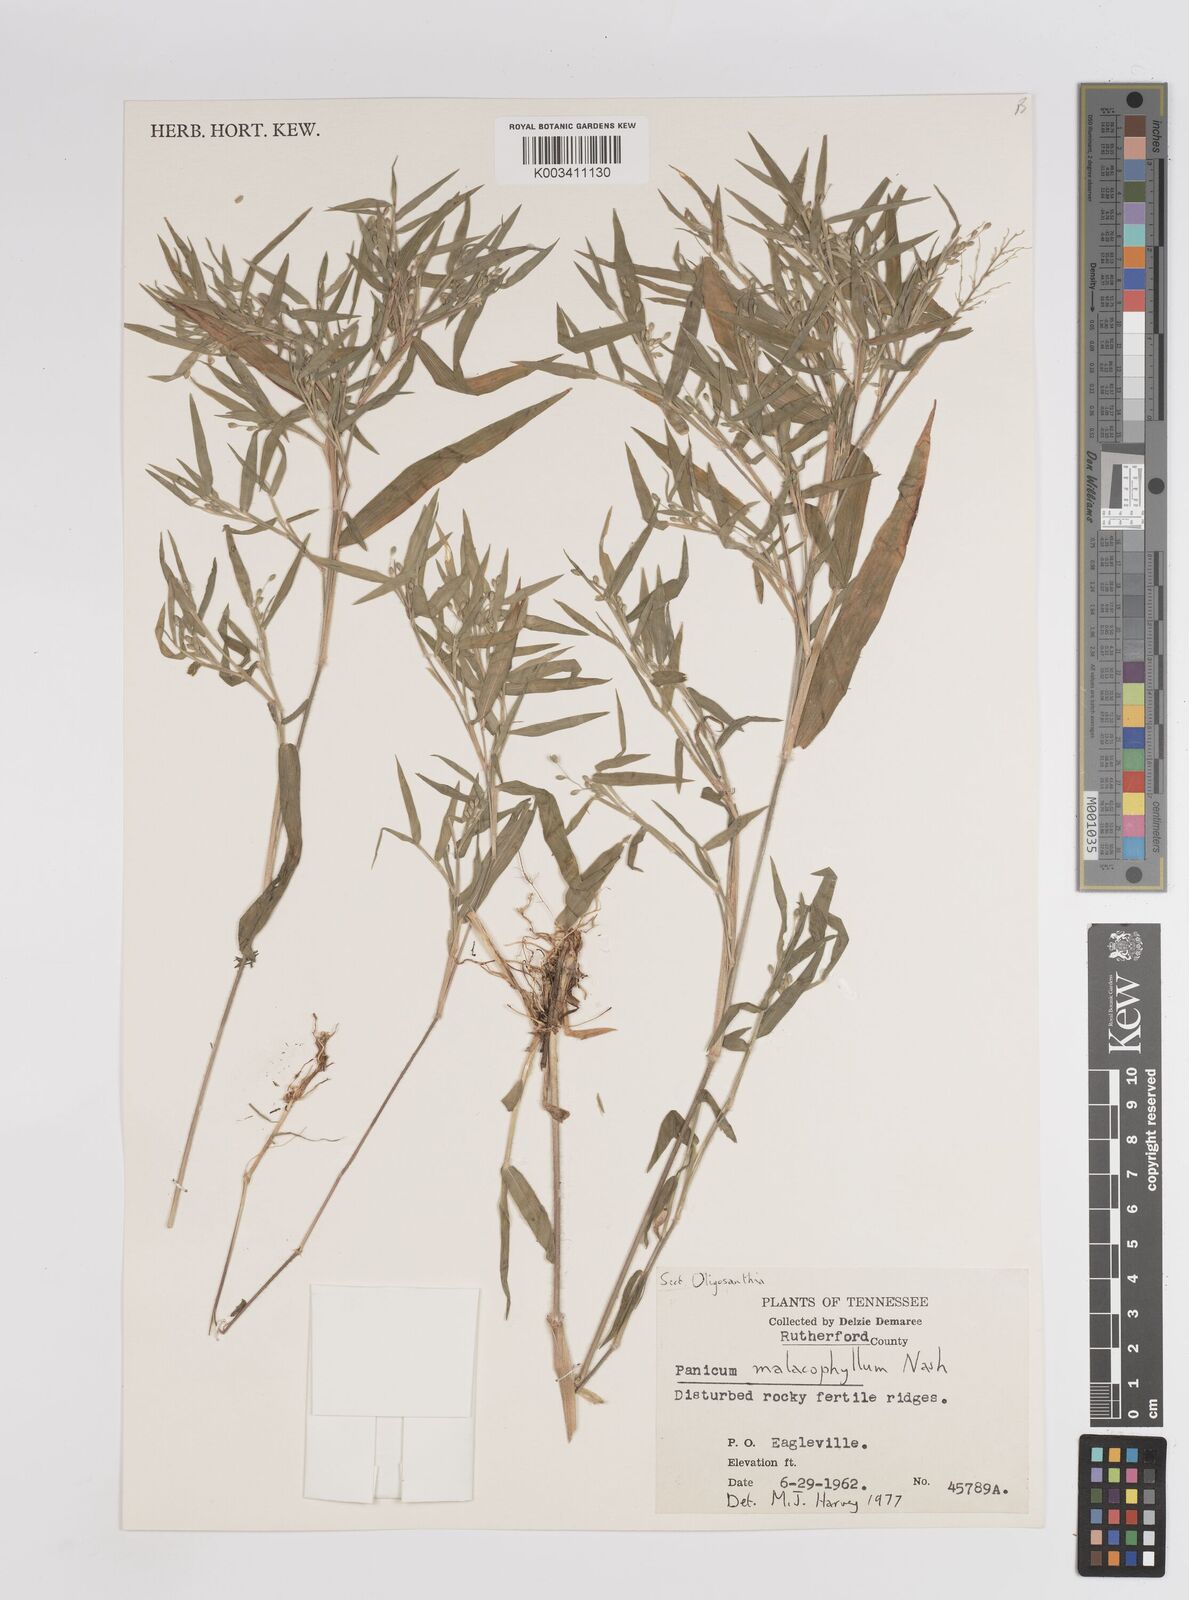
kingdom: Plantae
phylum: Tracheophyta
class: Liliopsida
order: Poales
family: Poaceae
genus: Dichanthelium
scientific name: Dichanthelium malacophyllum
